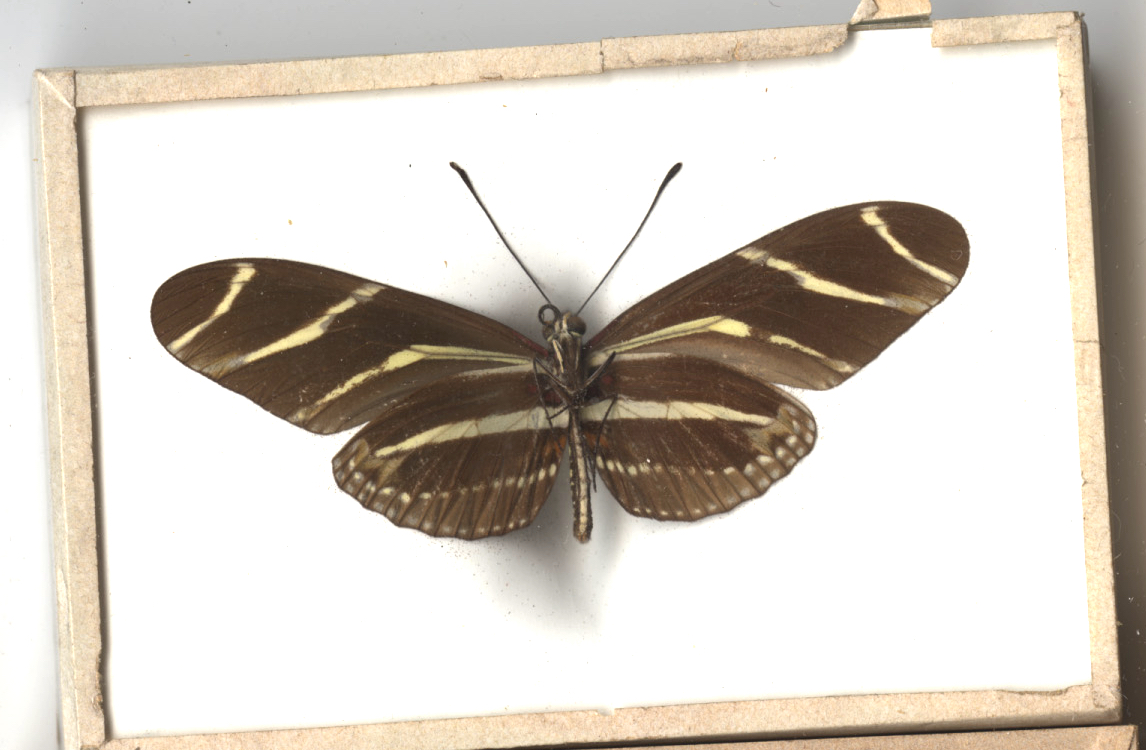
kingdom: Animalia
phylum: Arthropoda
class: Insecta
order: Lepidoptera
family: Nymphalidae
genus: Heliconius
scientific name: Heliconius charithonia
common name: Zebra
